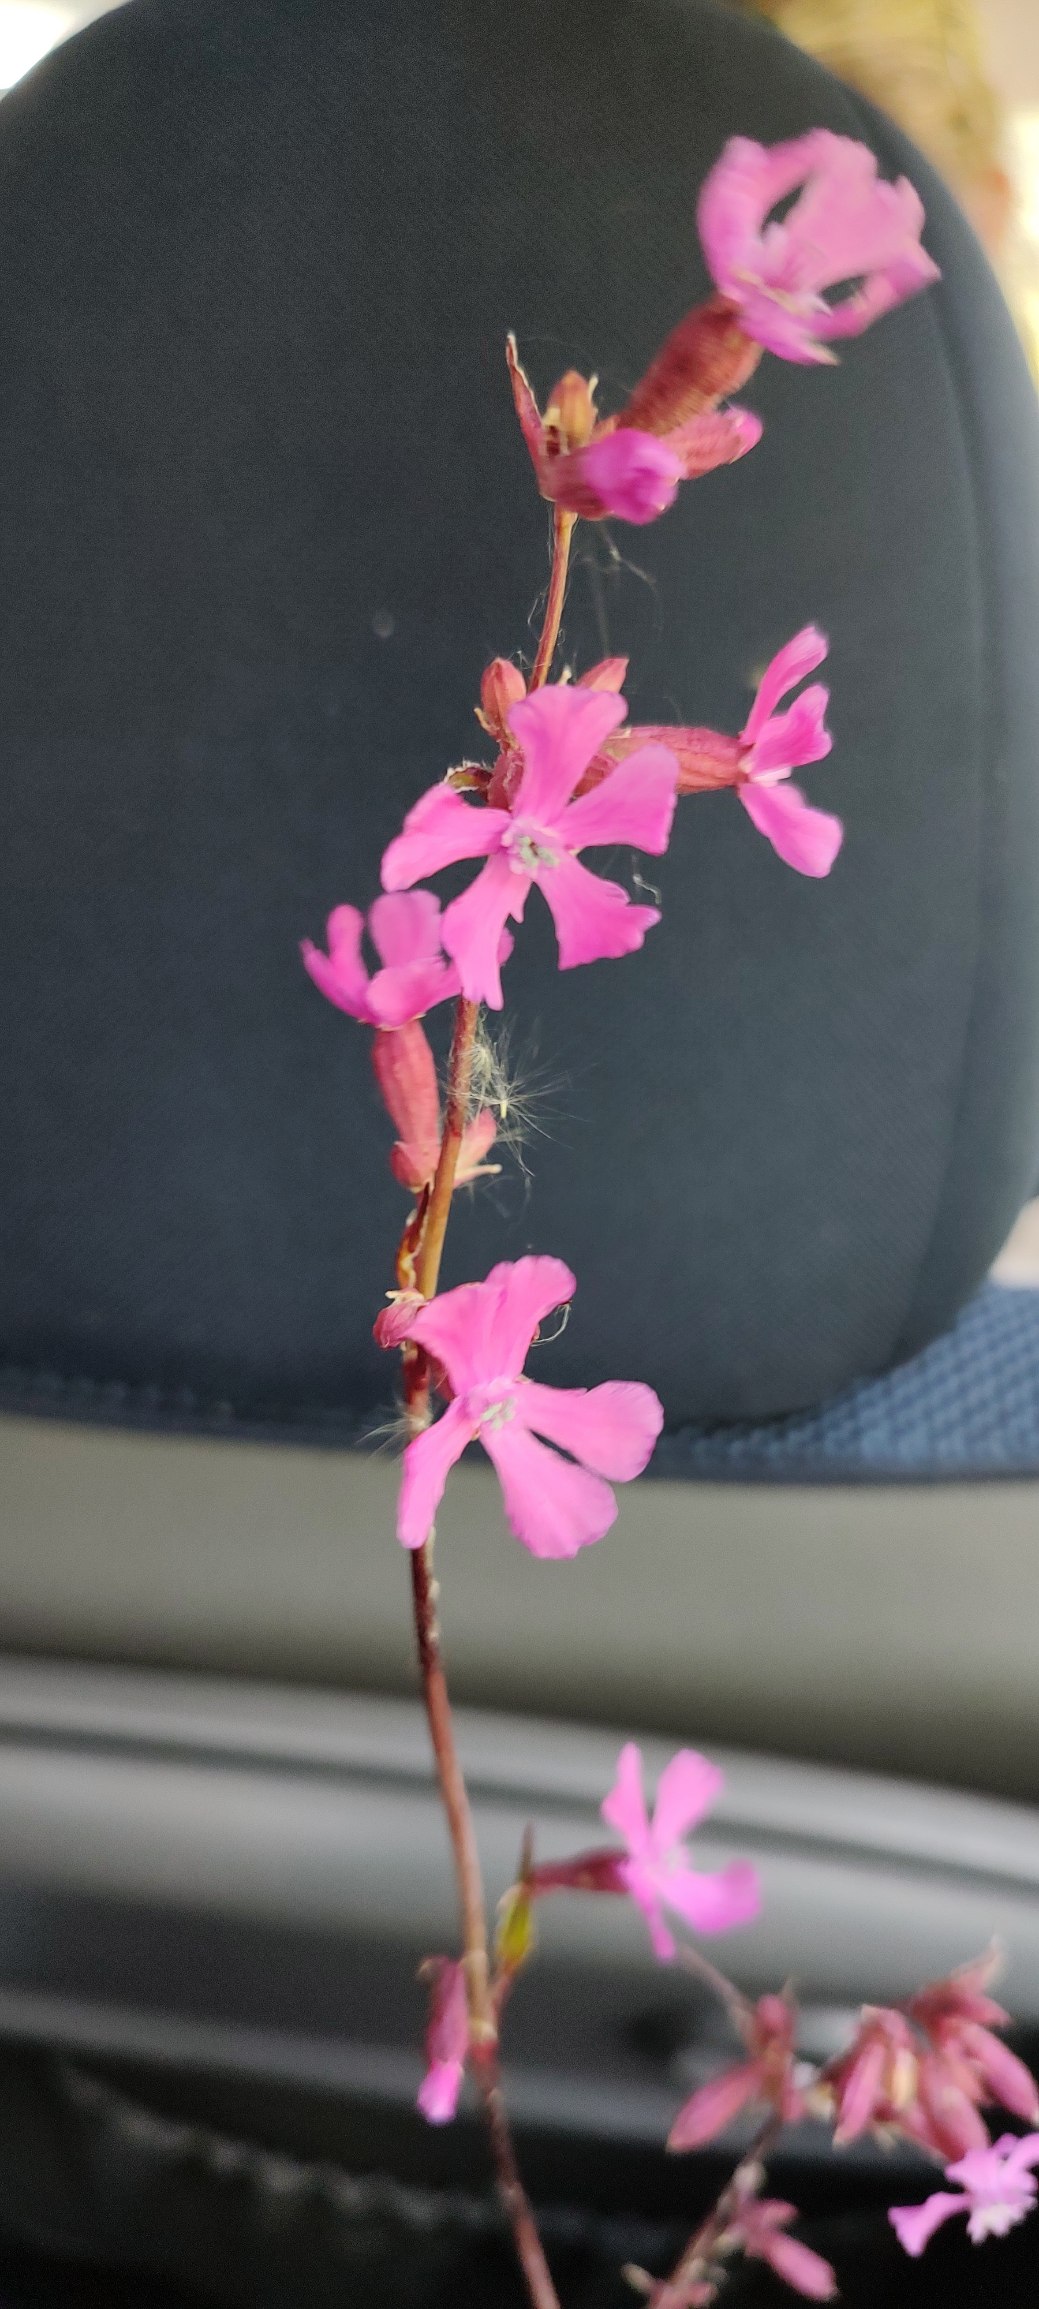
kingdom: Plantae
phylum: Tracheophyta
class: Magnoliopsida
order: Caryophyllales
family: Caryophyllaceae
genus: Viscaria
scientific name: Viscaria vulgaris
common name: Tjærenellike
